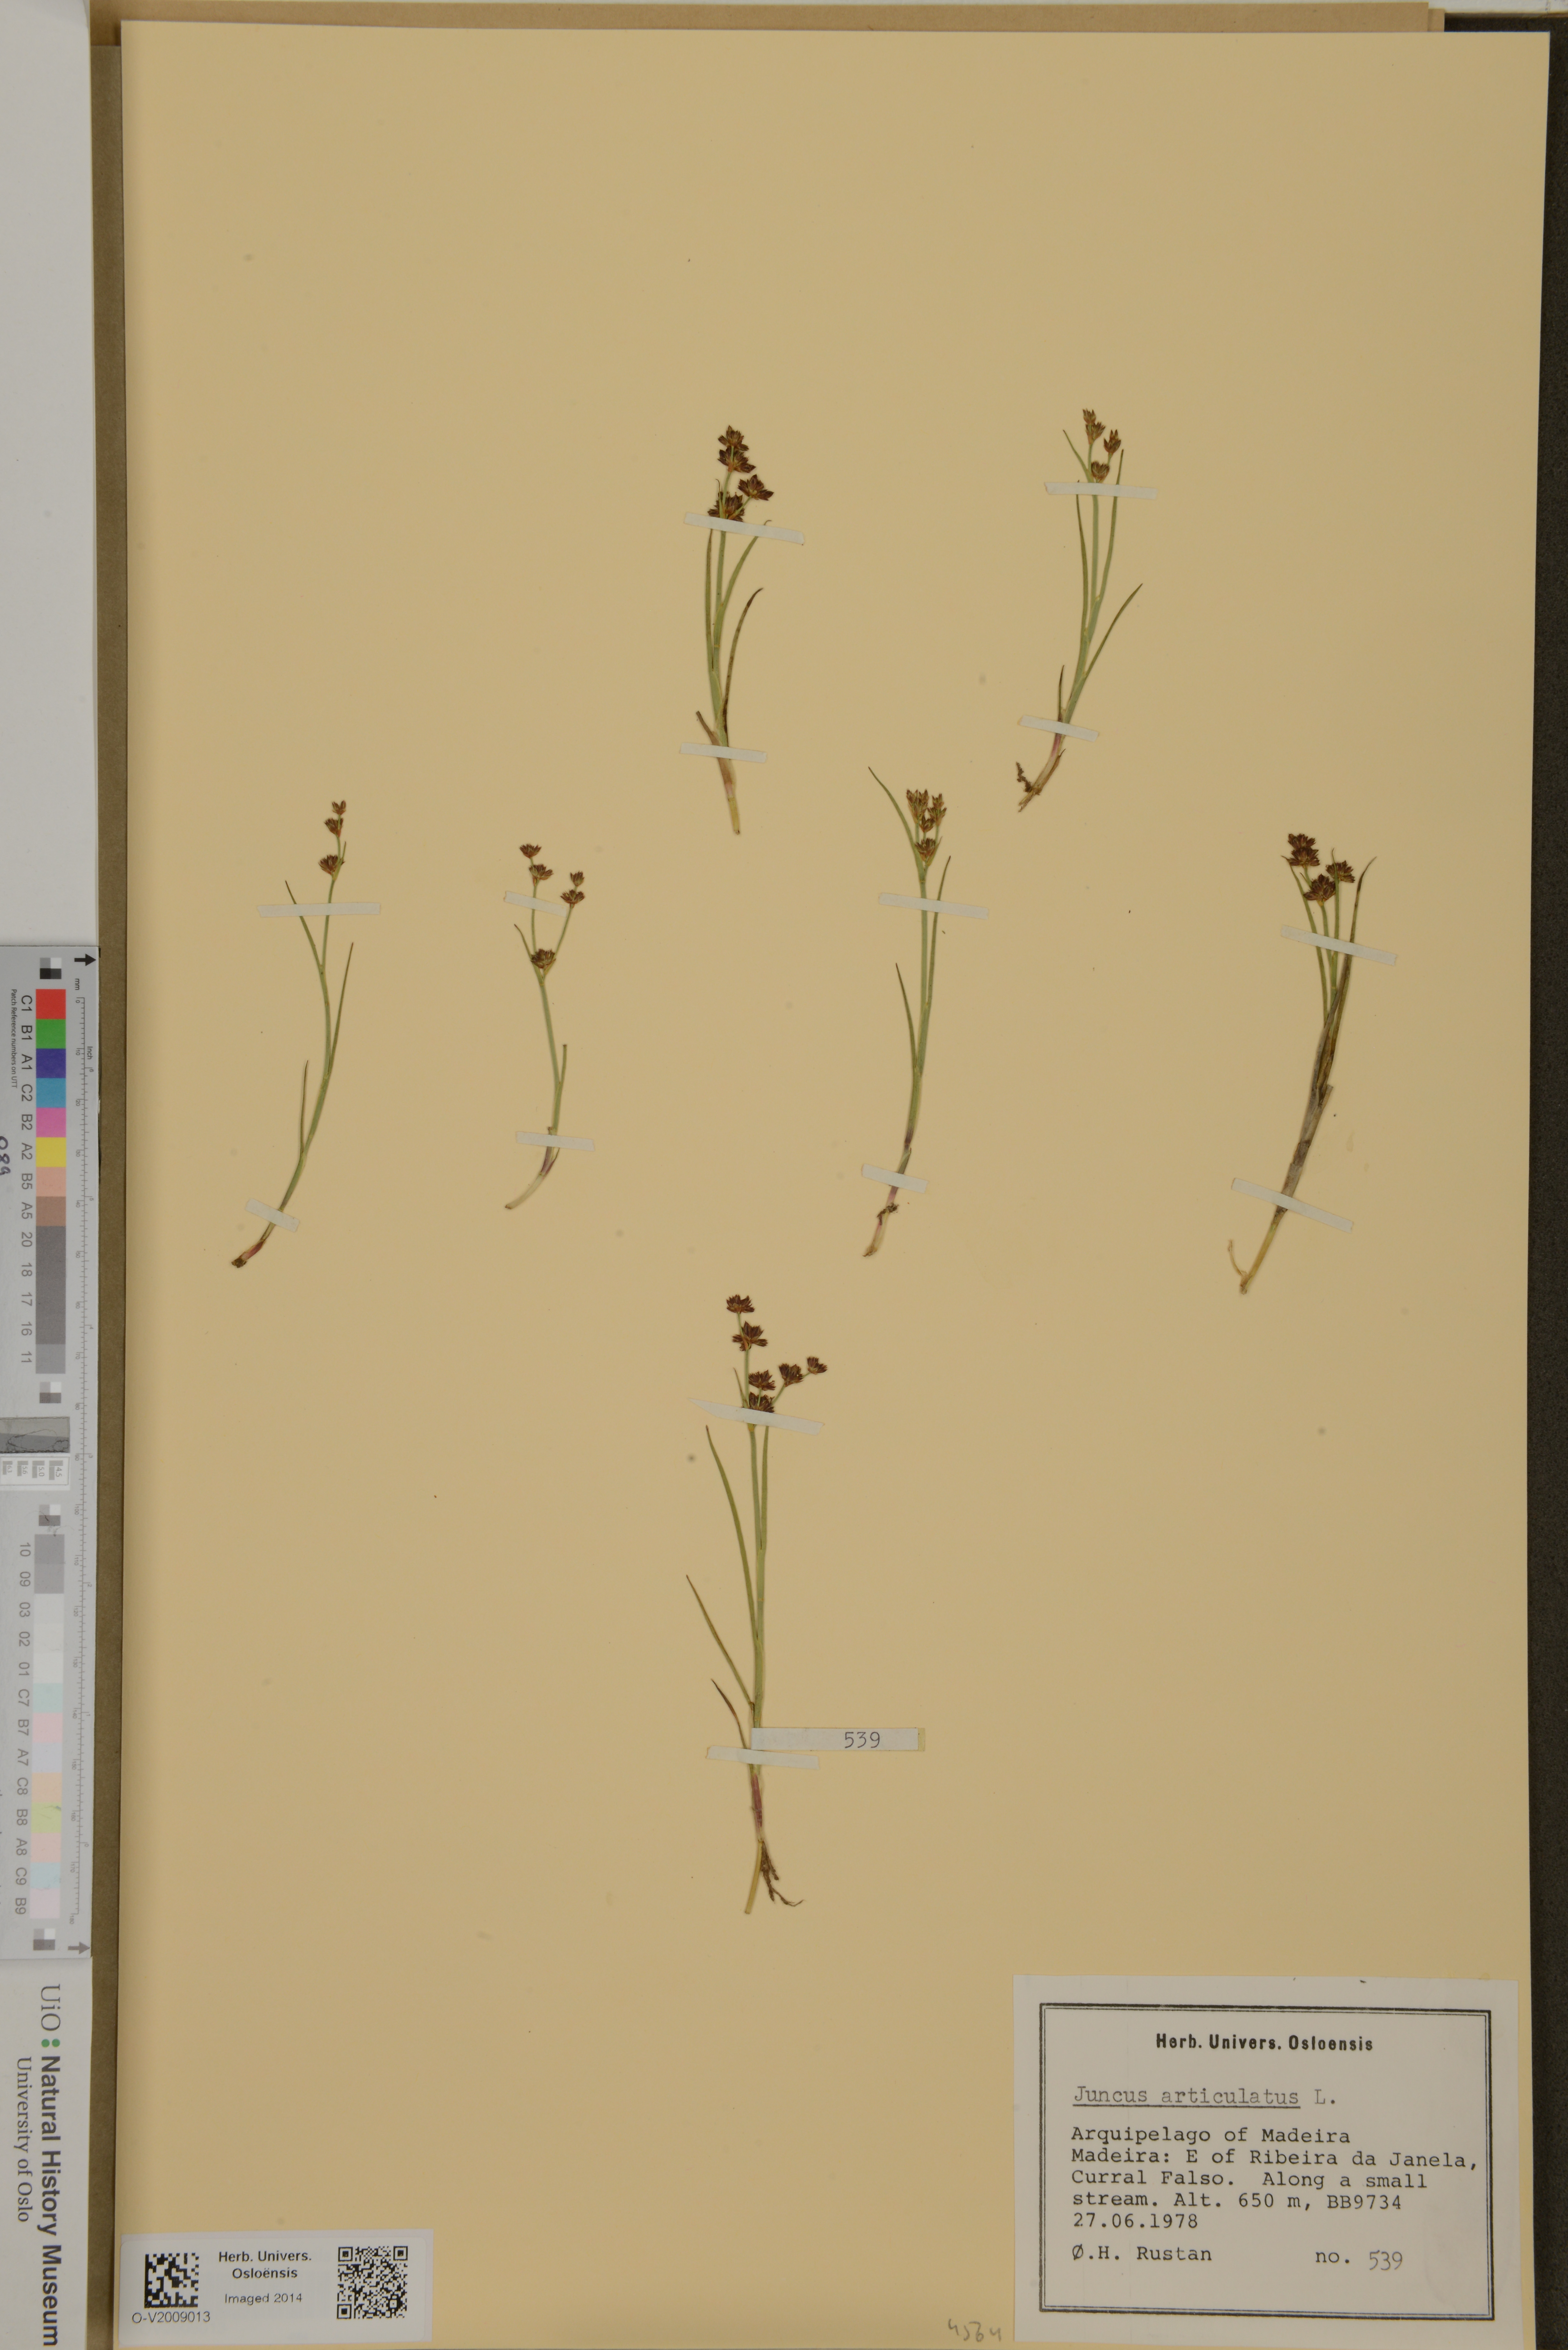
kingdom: Plantae
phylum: Tracheophyta
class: Liliopsida
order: Poales
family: Juncaceae
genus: Juncus
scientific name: Juncus articulatus
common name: Jointed rush
